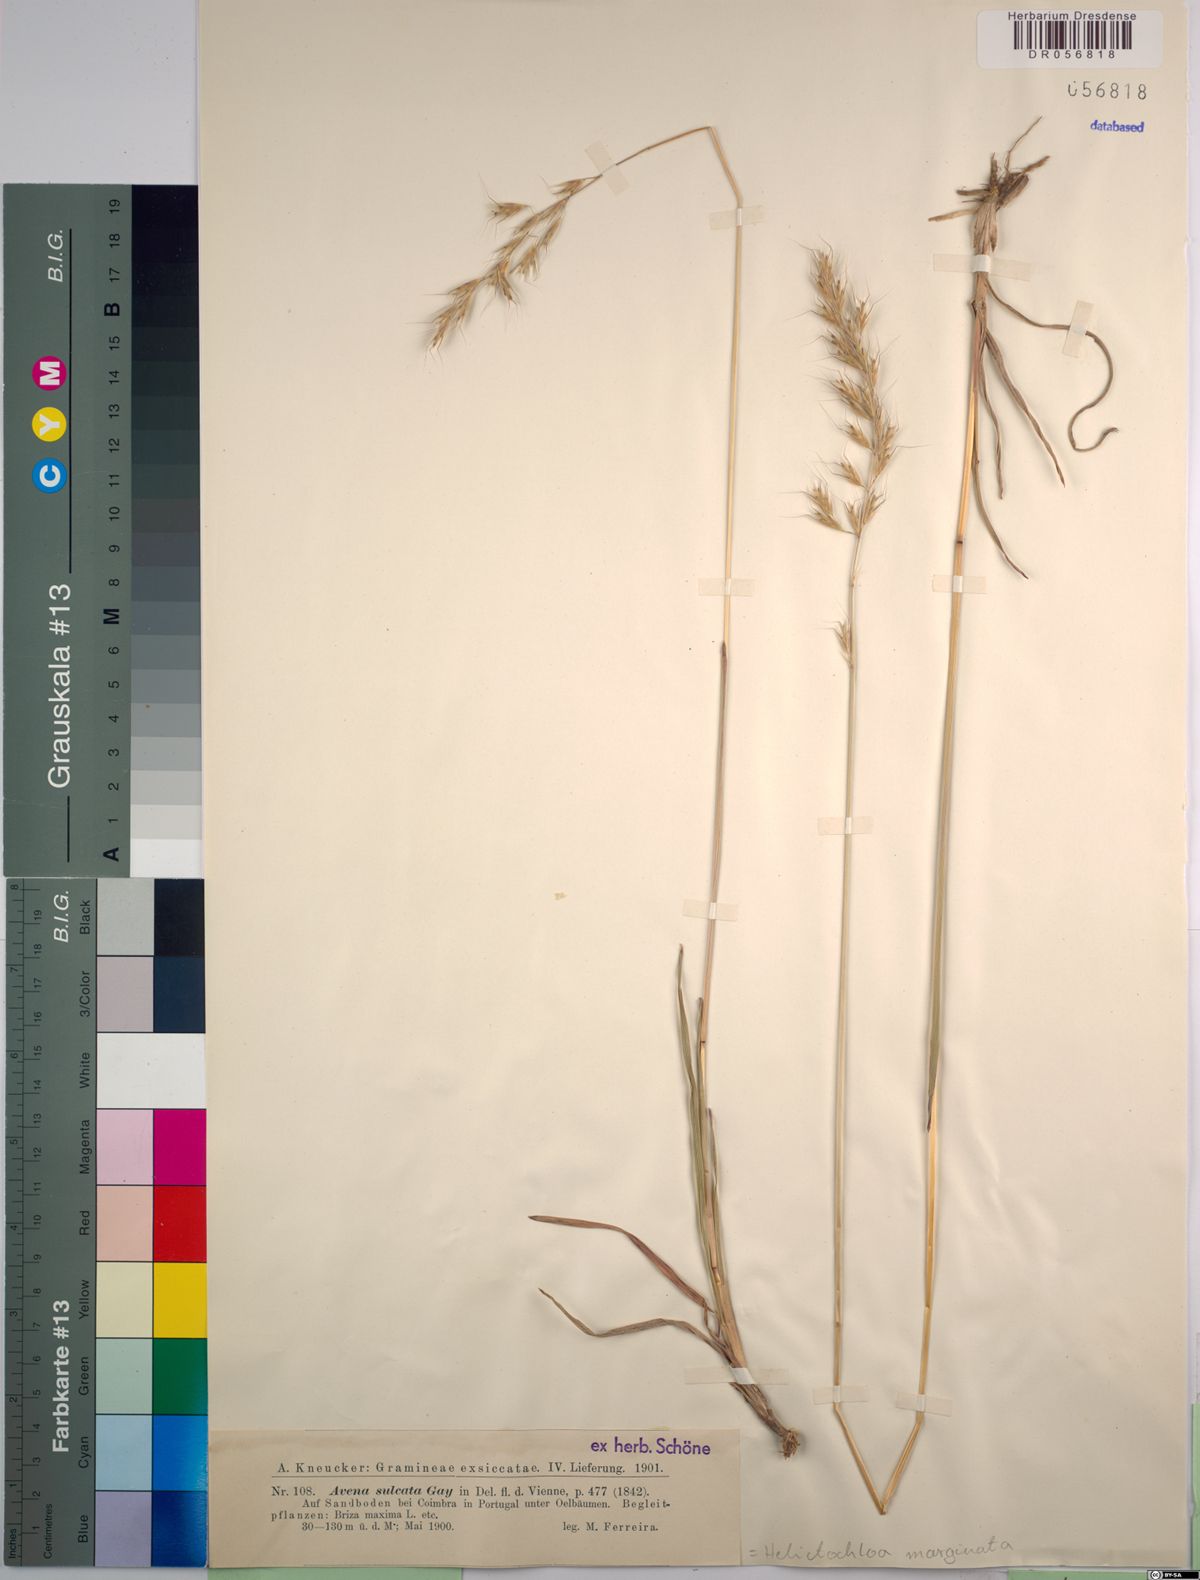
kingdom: Plantae
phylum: Tracheophyta
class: Liliopsida
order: Poales
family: Poaceae
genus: Helictochloa
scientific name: Helictochloa marginata
